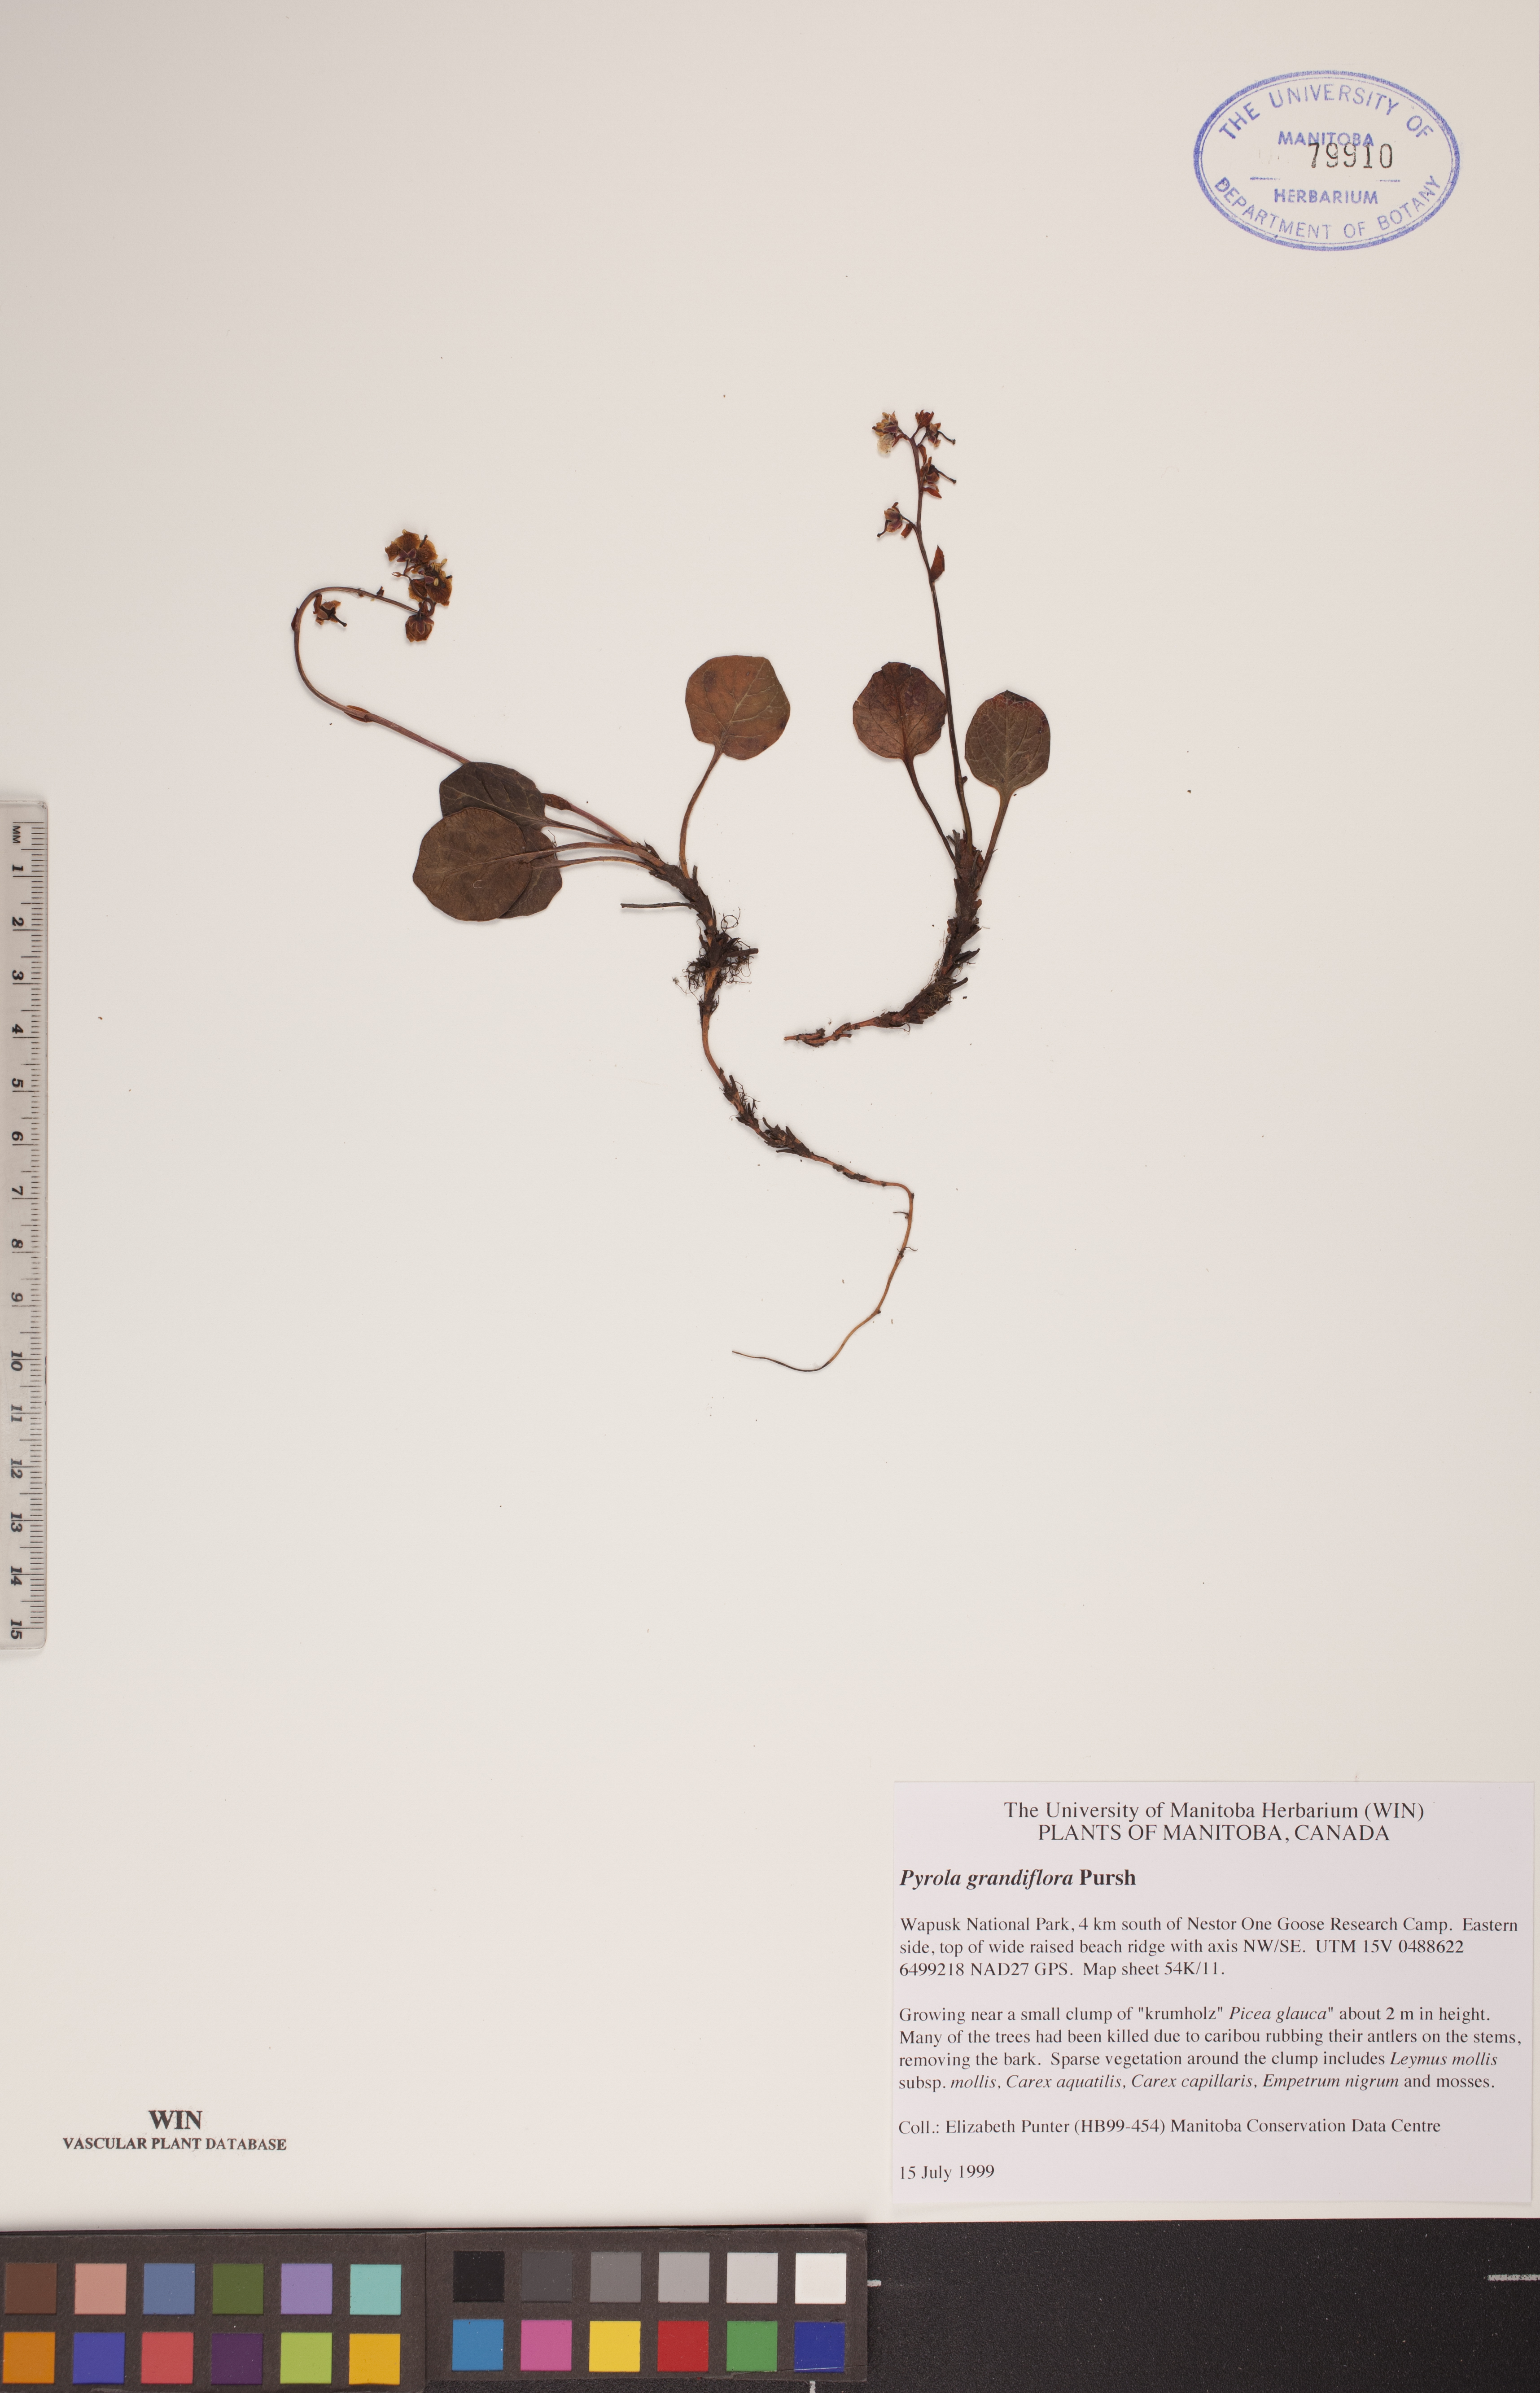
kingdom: Plantae
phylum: Tracheophyta
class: Magnoliopsida
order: Ericales
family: Ericaceae
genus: Pyrola
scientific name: Pyrola grandiflora
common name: Arctic pyrola
